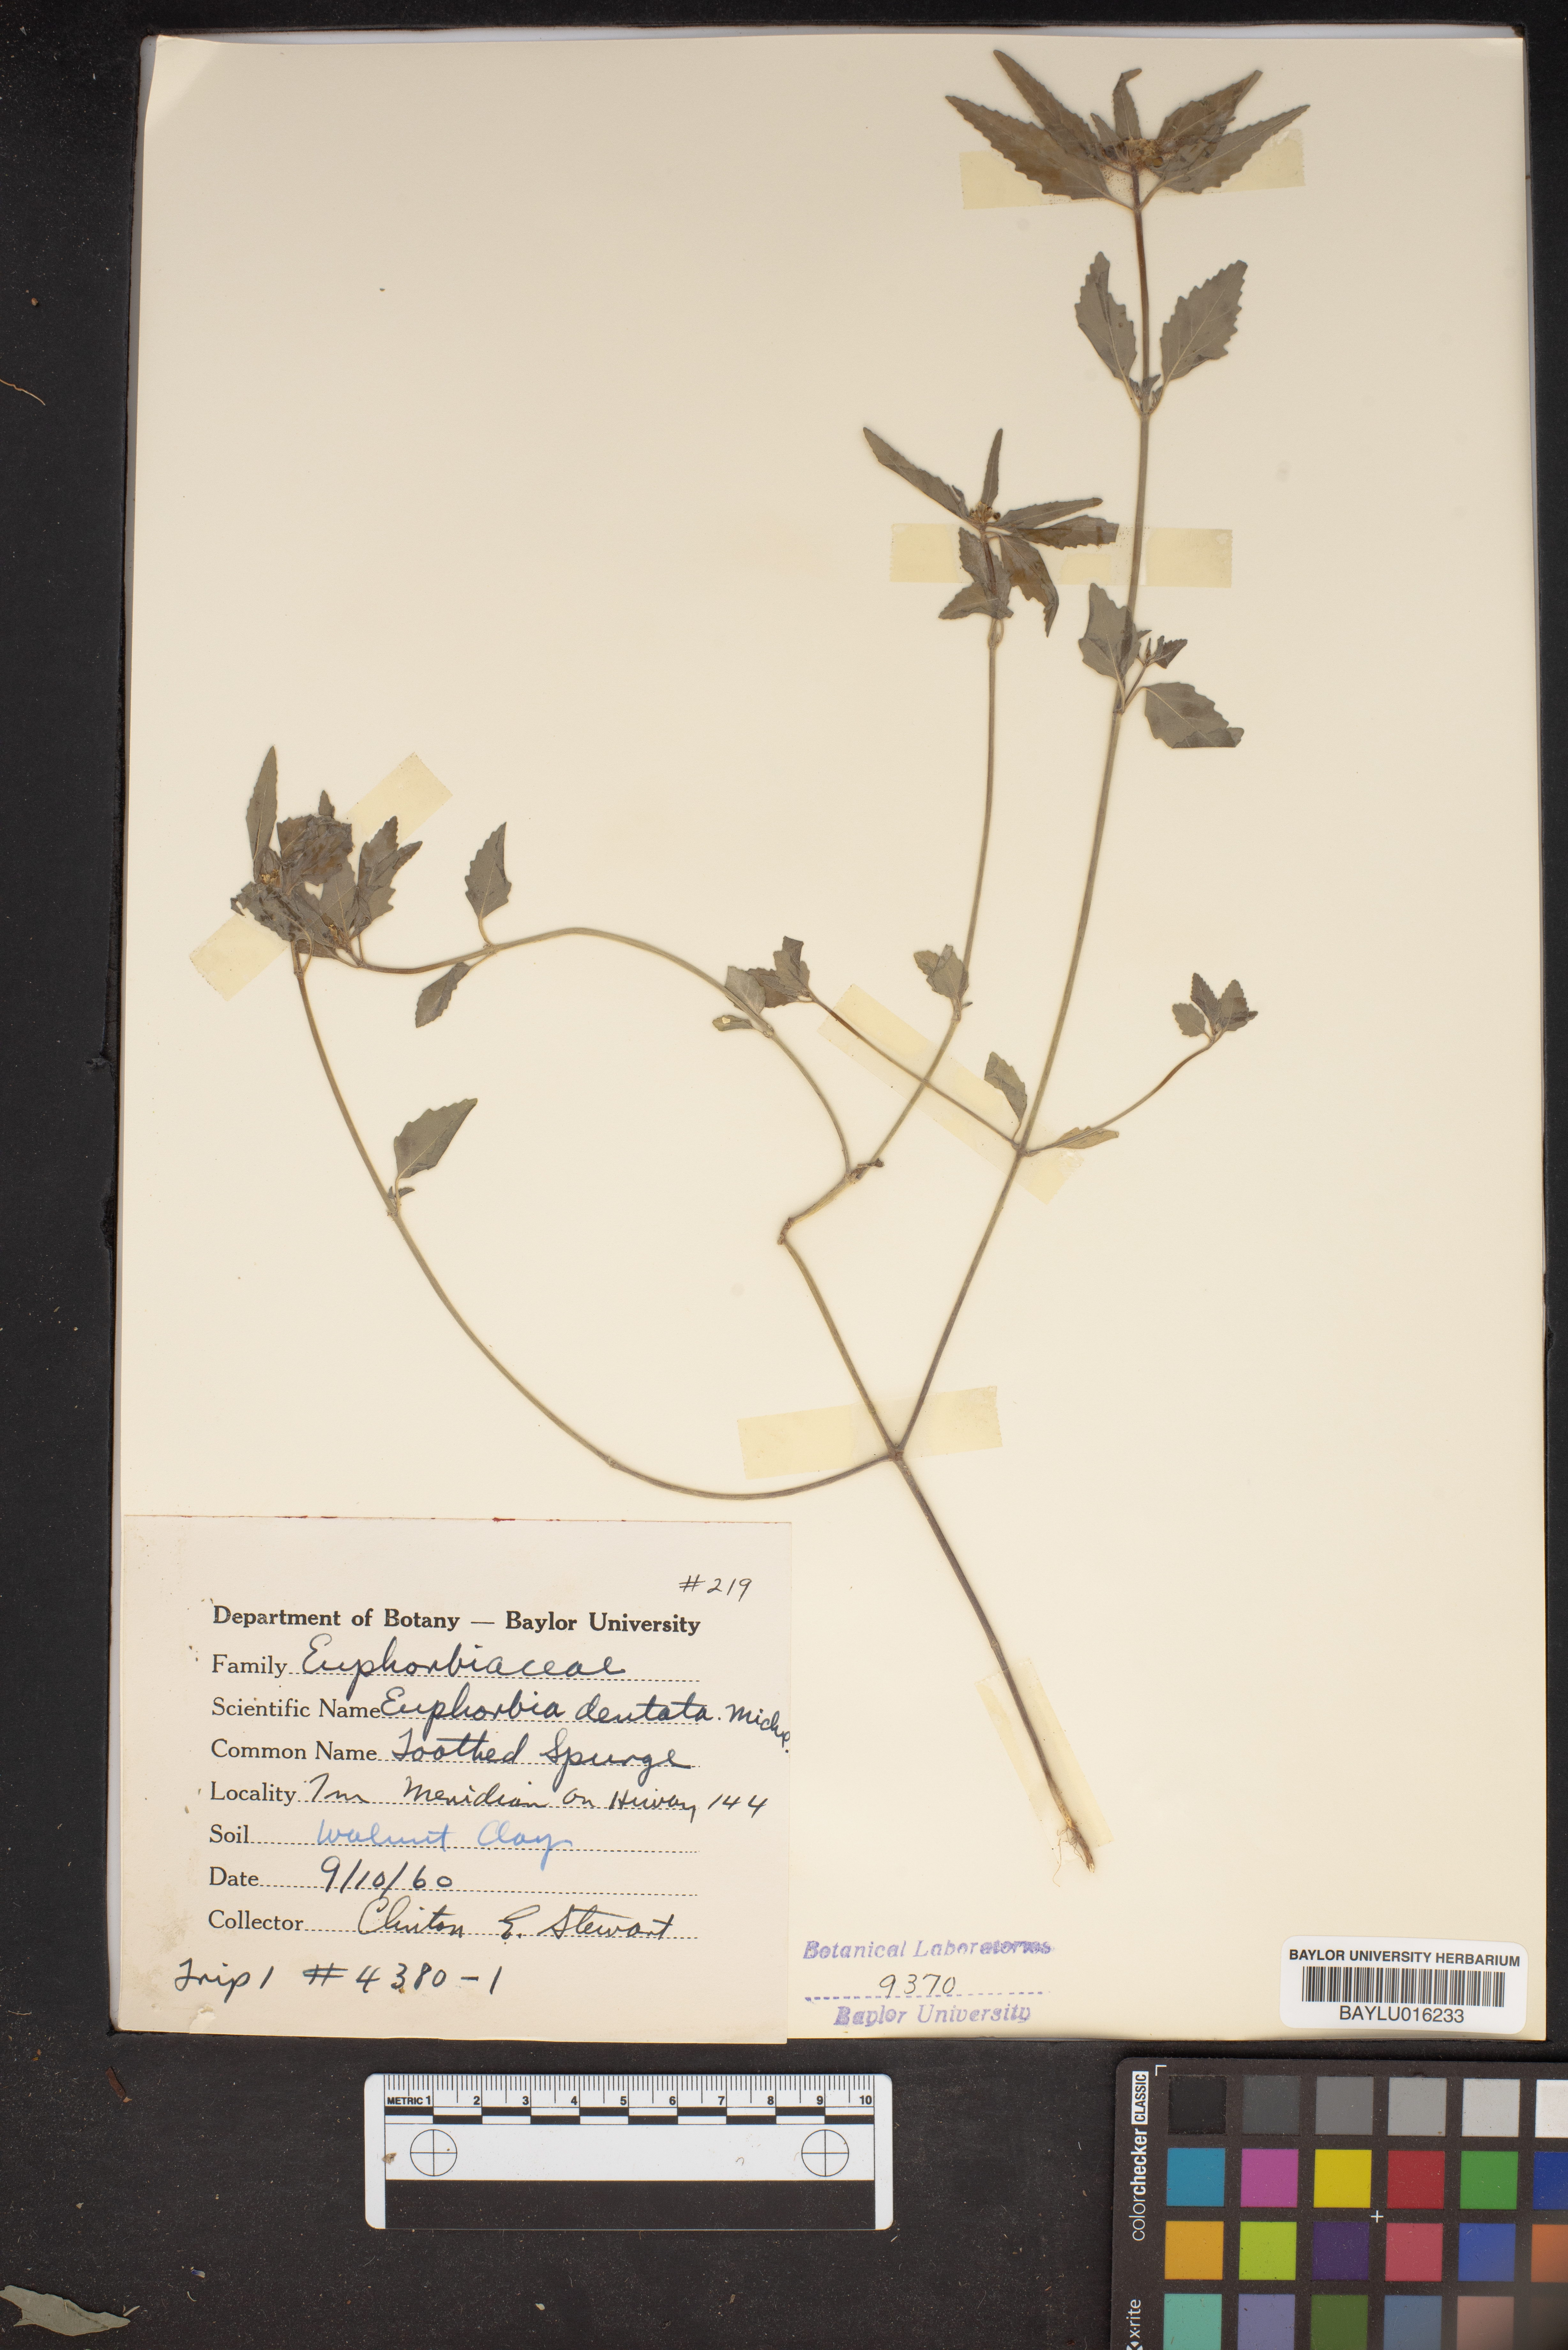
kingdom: Plantae
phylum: Tracheophyta
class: Magnoliopsida
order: Malpighiales
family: Euphorbiaceae
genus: Euphorbia
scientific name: Euphorbia dentata
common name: Dentate spurge
